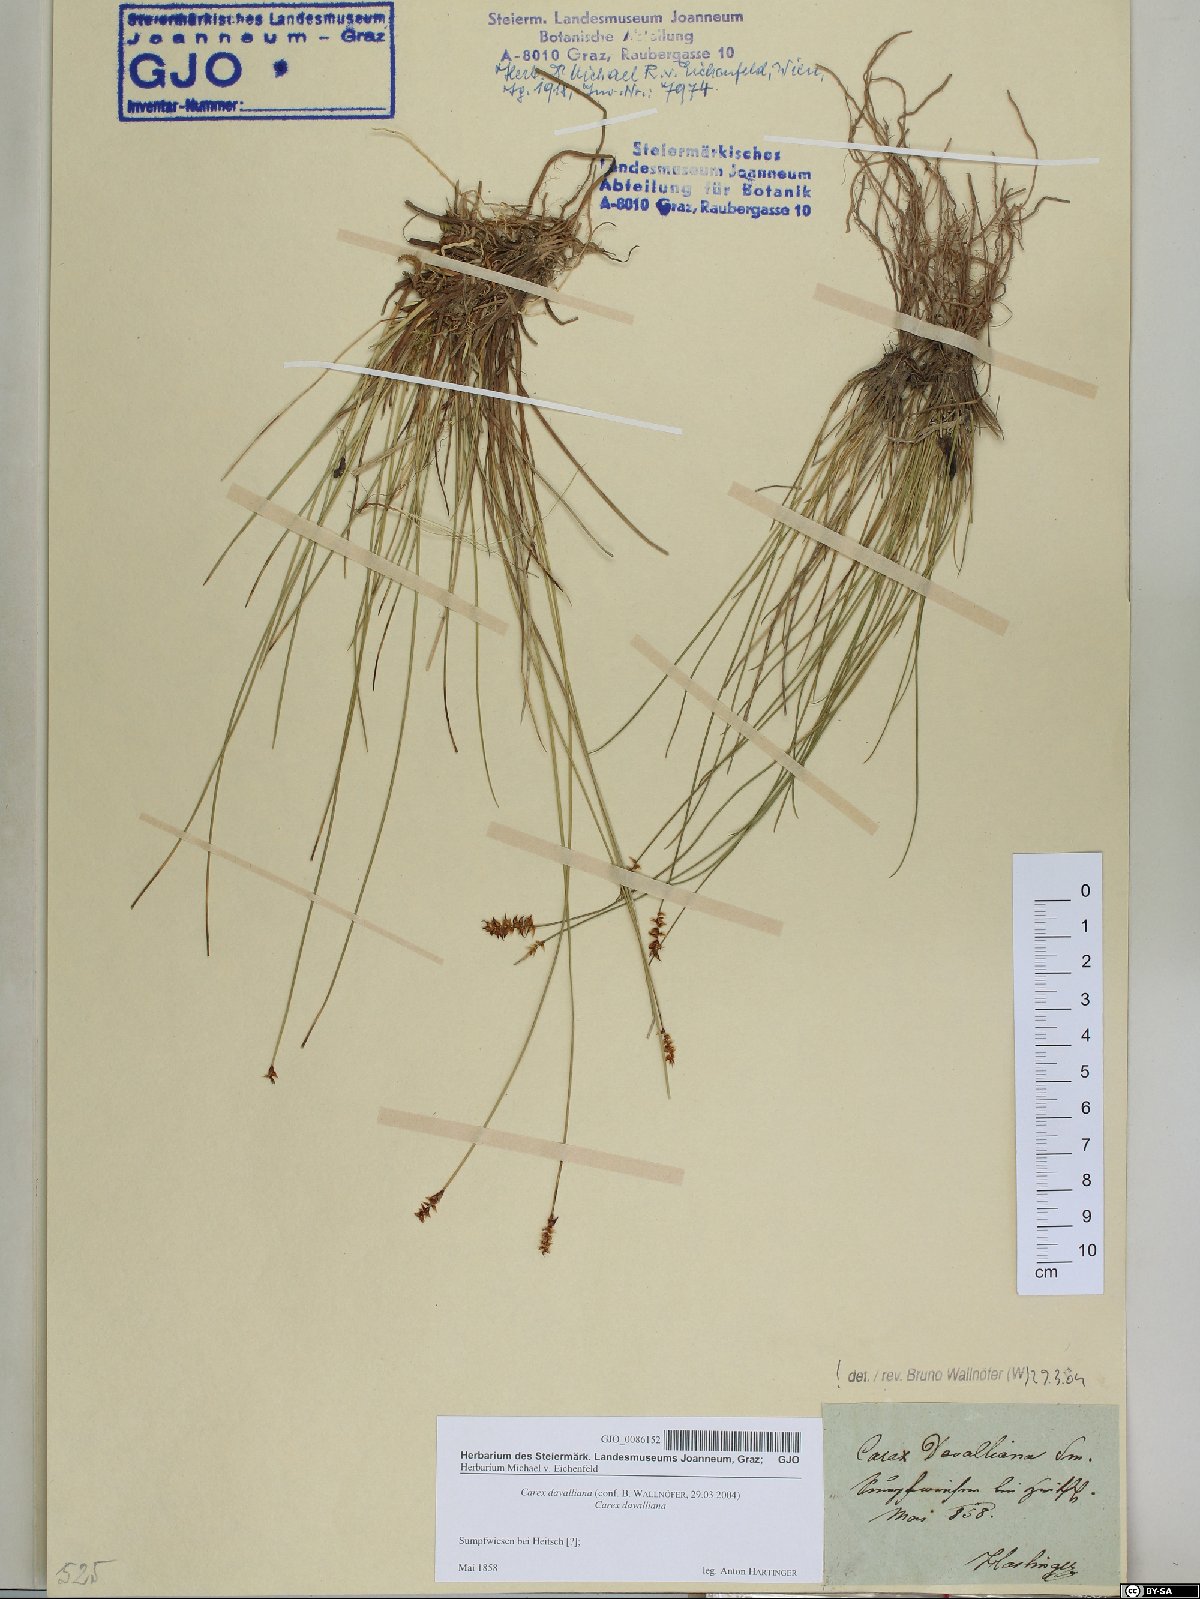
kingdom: Plantae
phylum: Tracheophyta
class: Liliopsida
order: Poales
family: Cyperaceae
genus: Carex
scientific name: Carex davalliana
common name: Davall's sedge
